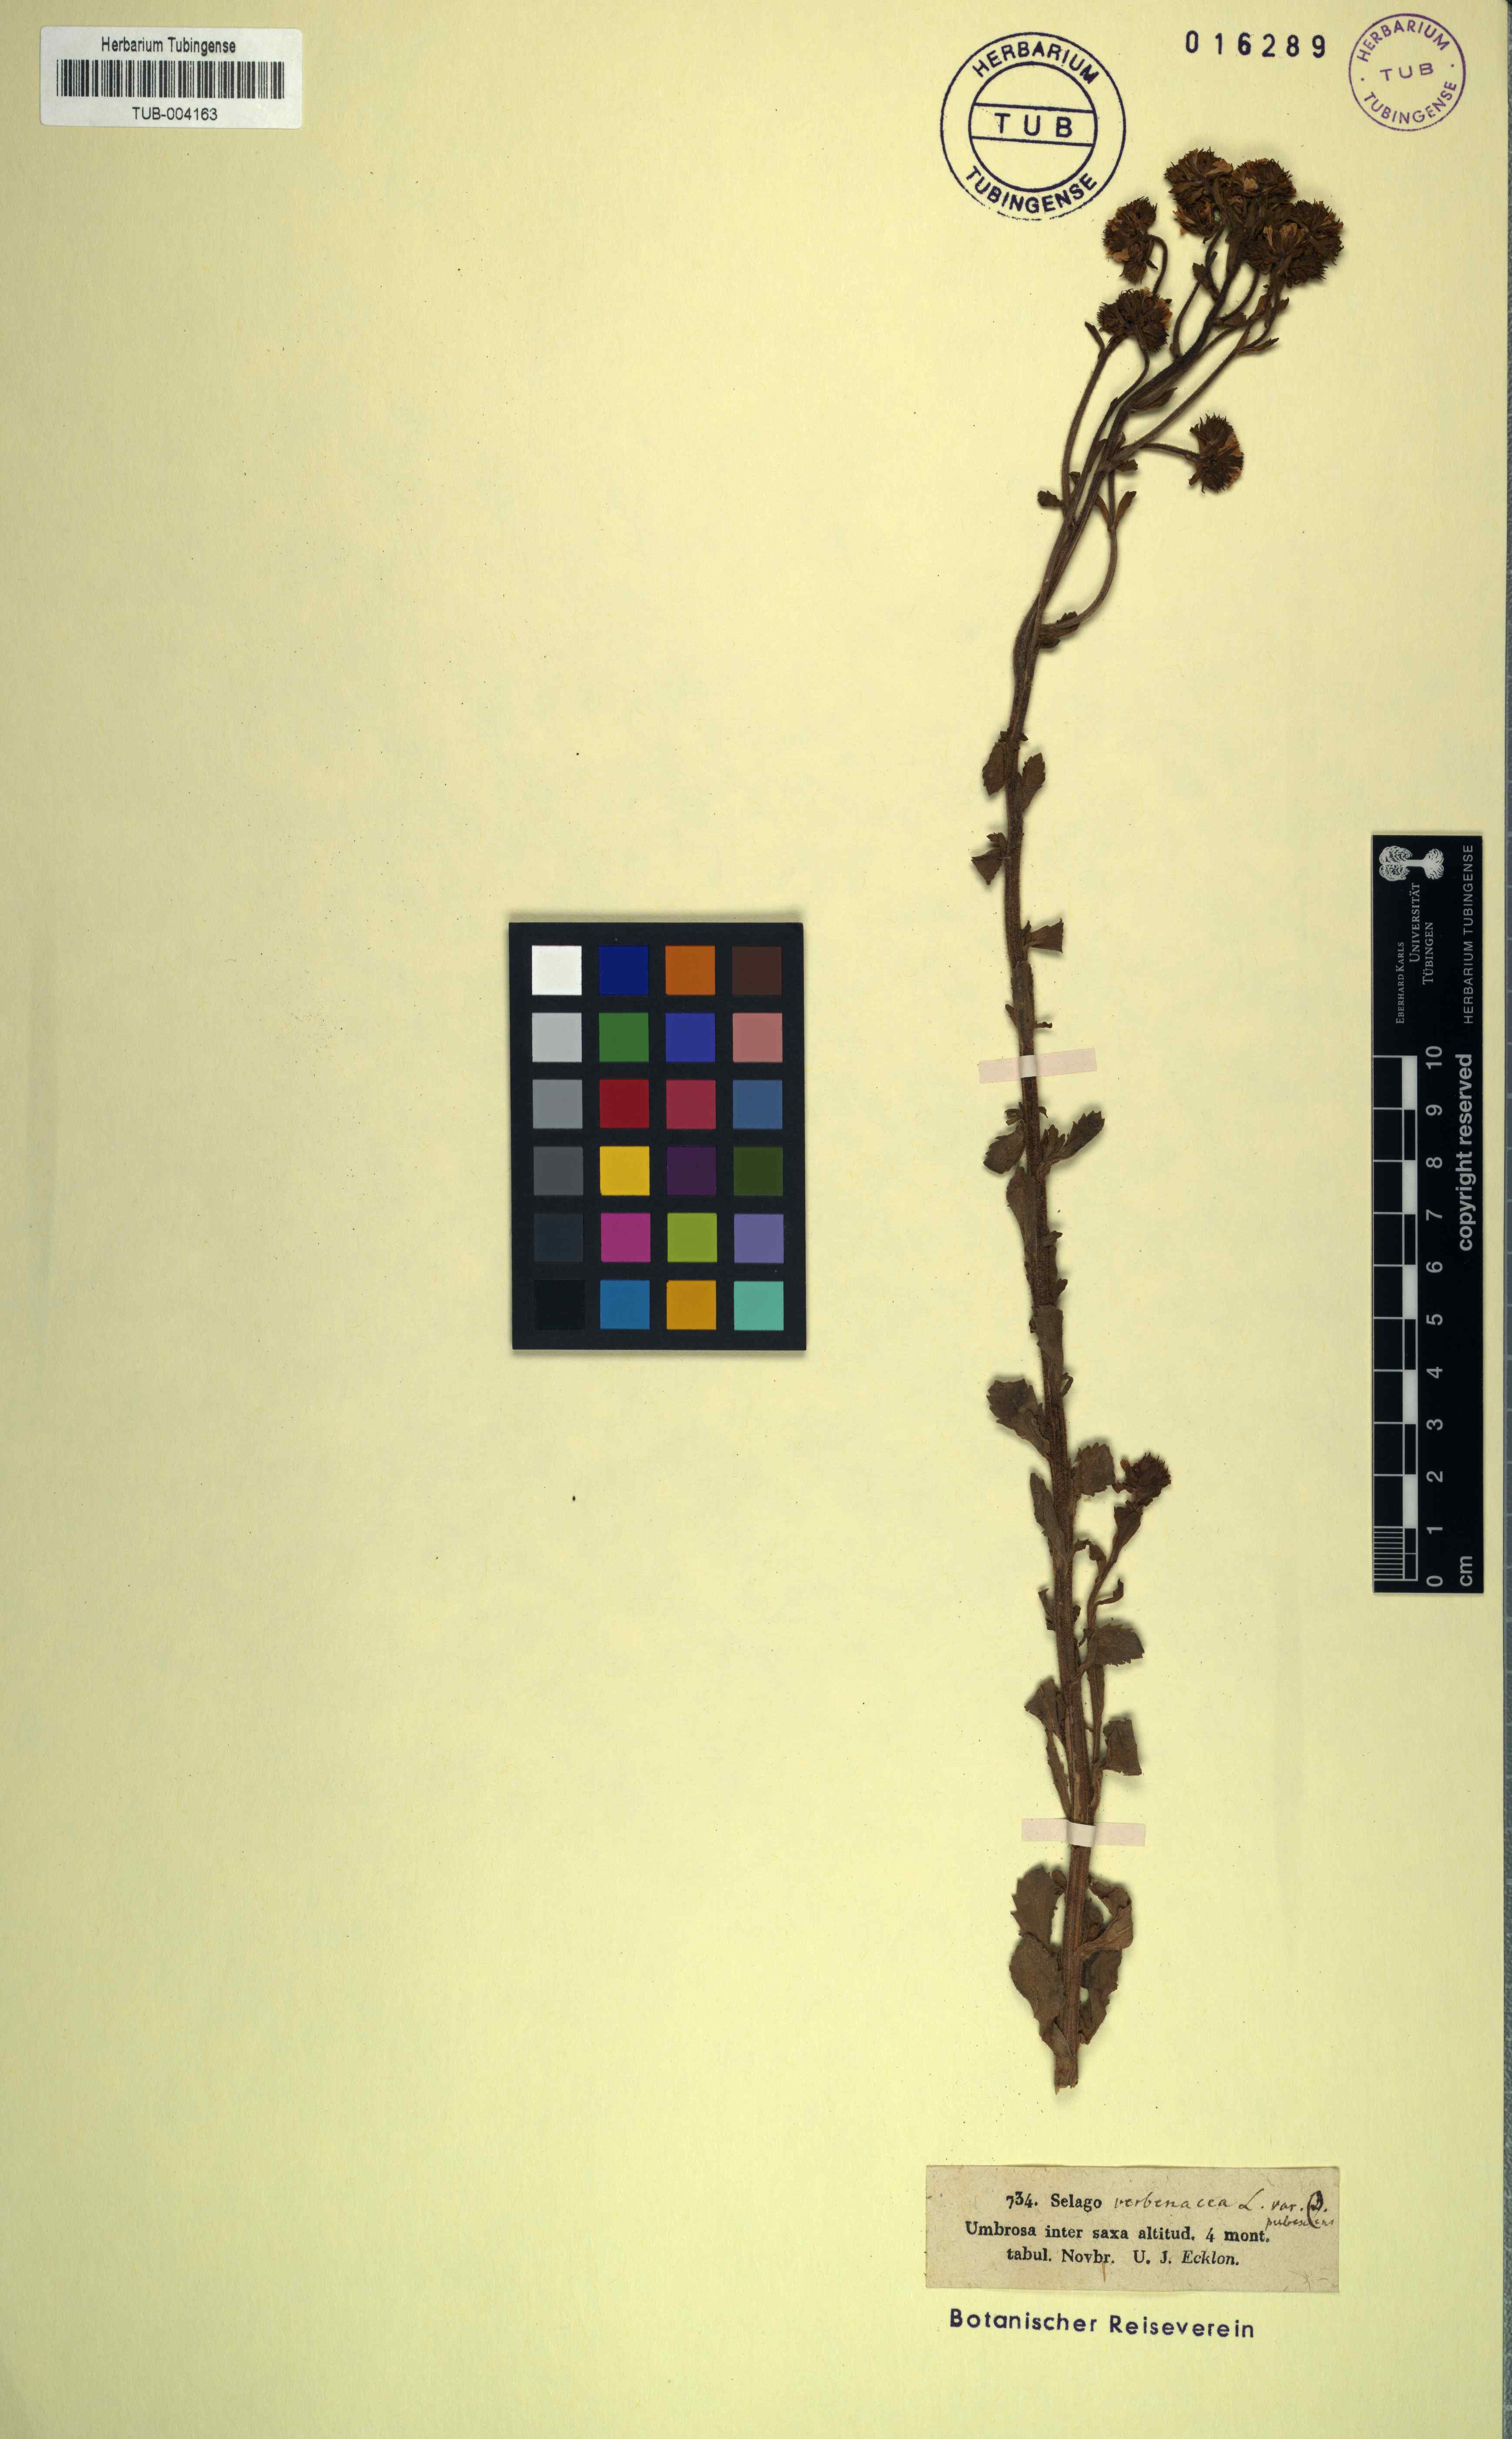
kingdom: Plantae
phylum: Tracheophyta
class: Magnoliopsida
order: Lamiales
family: Scrophulariaceae
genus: Pseudoselago
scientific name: Pseudoselago verbenacea
